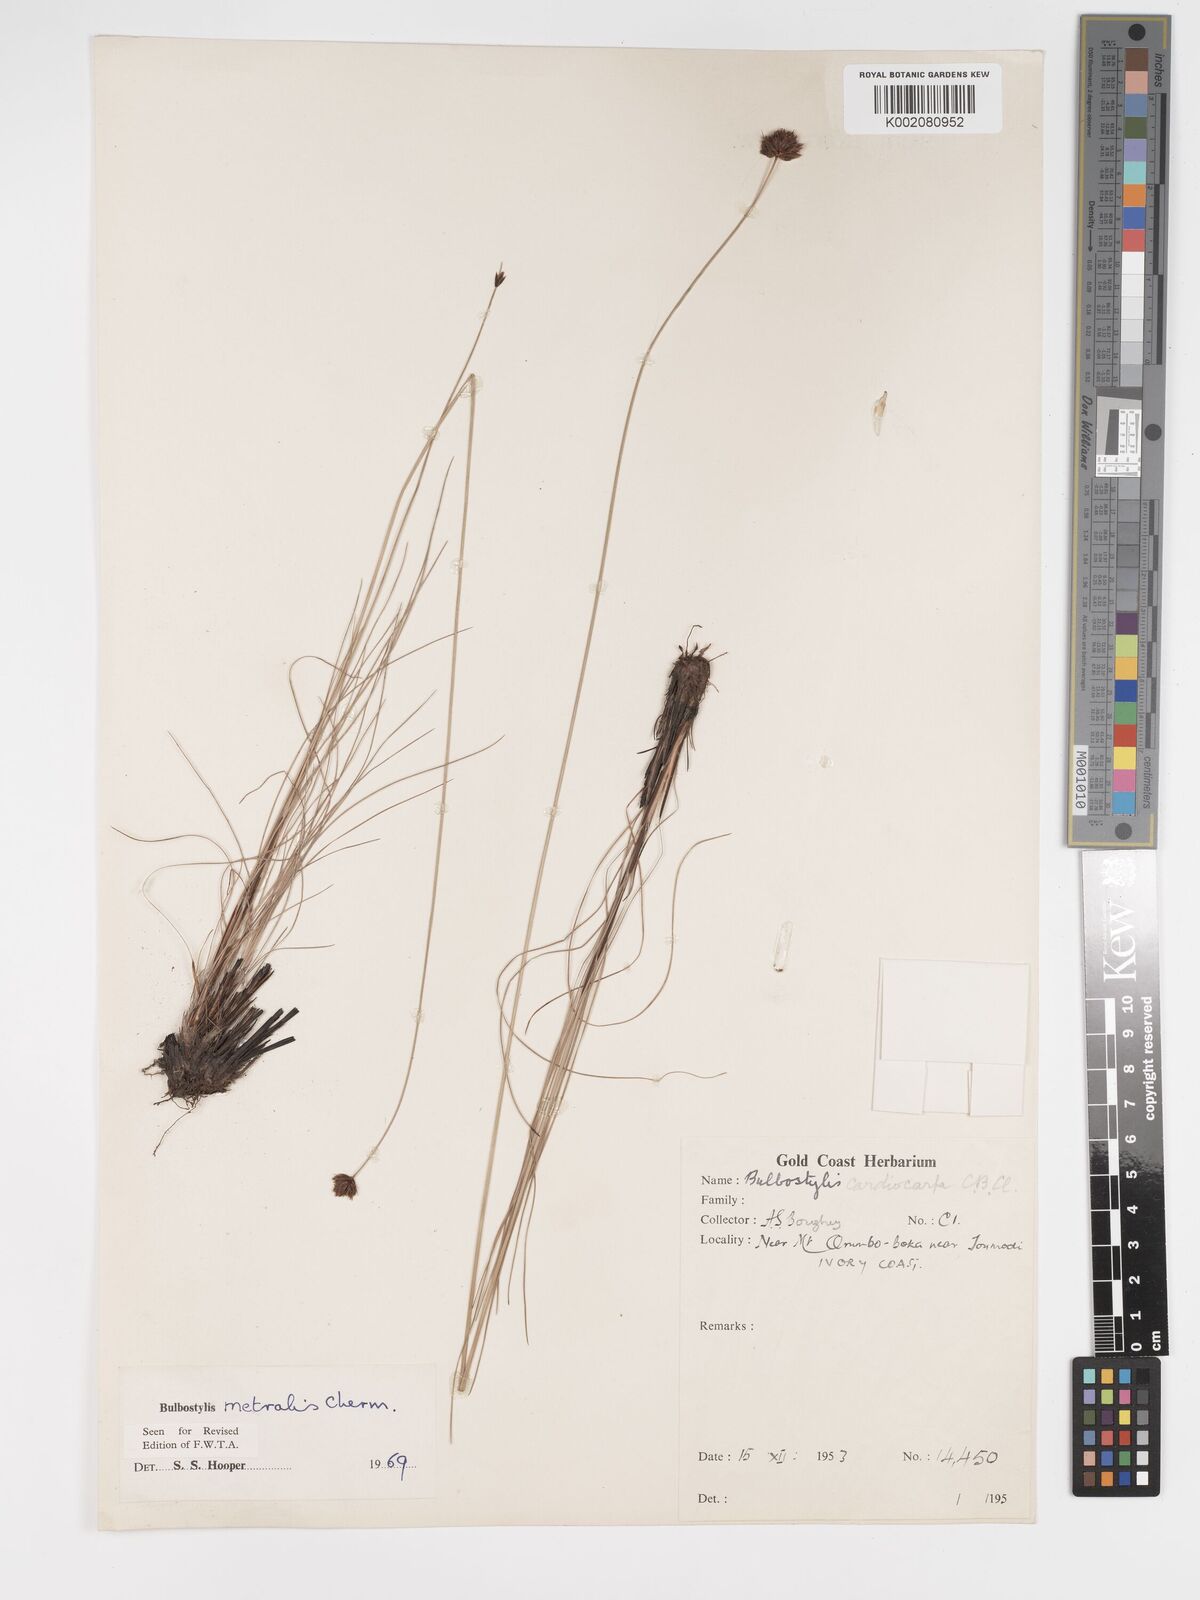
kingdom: Plantae
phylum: Tracheophyta
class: Liliopsida
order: Poales
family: Cyperaceae
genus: Bulbostylis
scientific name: Bulbostylis filamentosa
